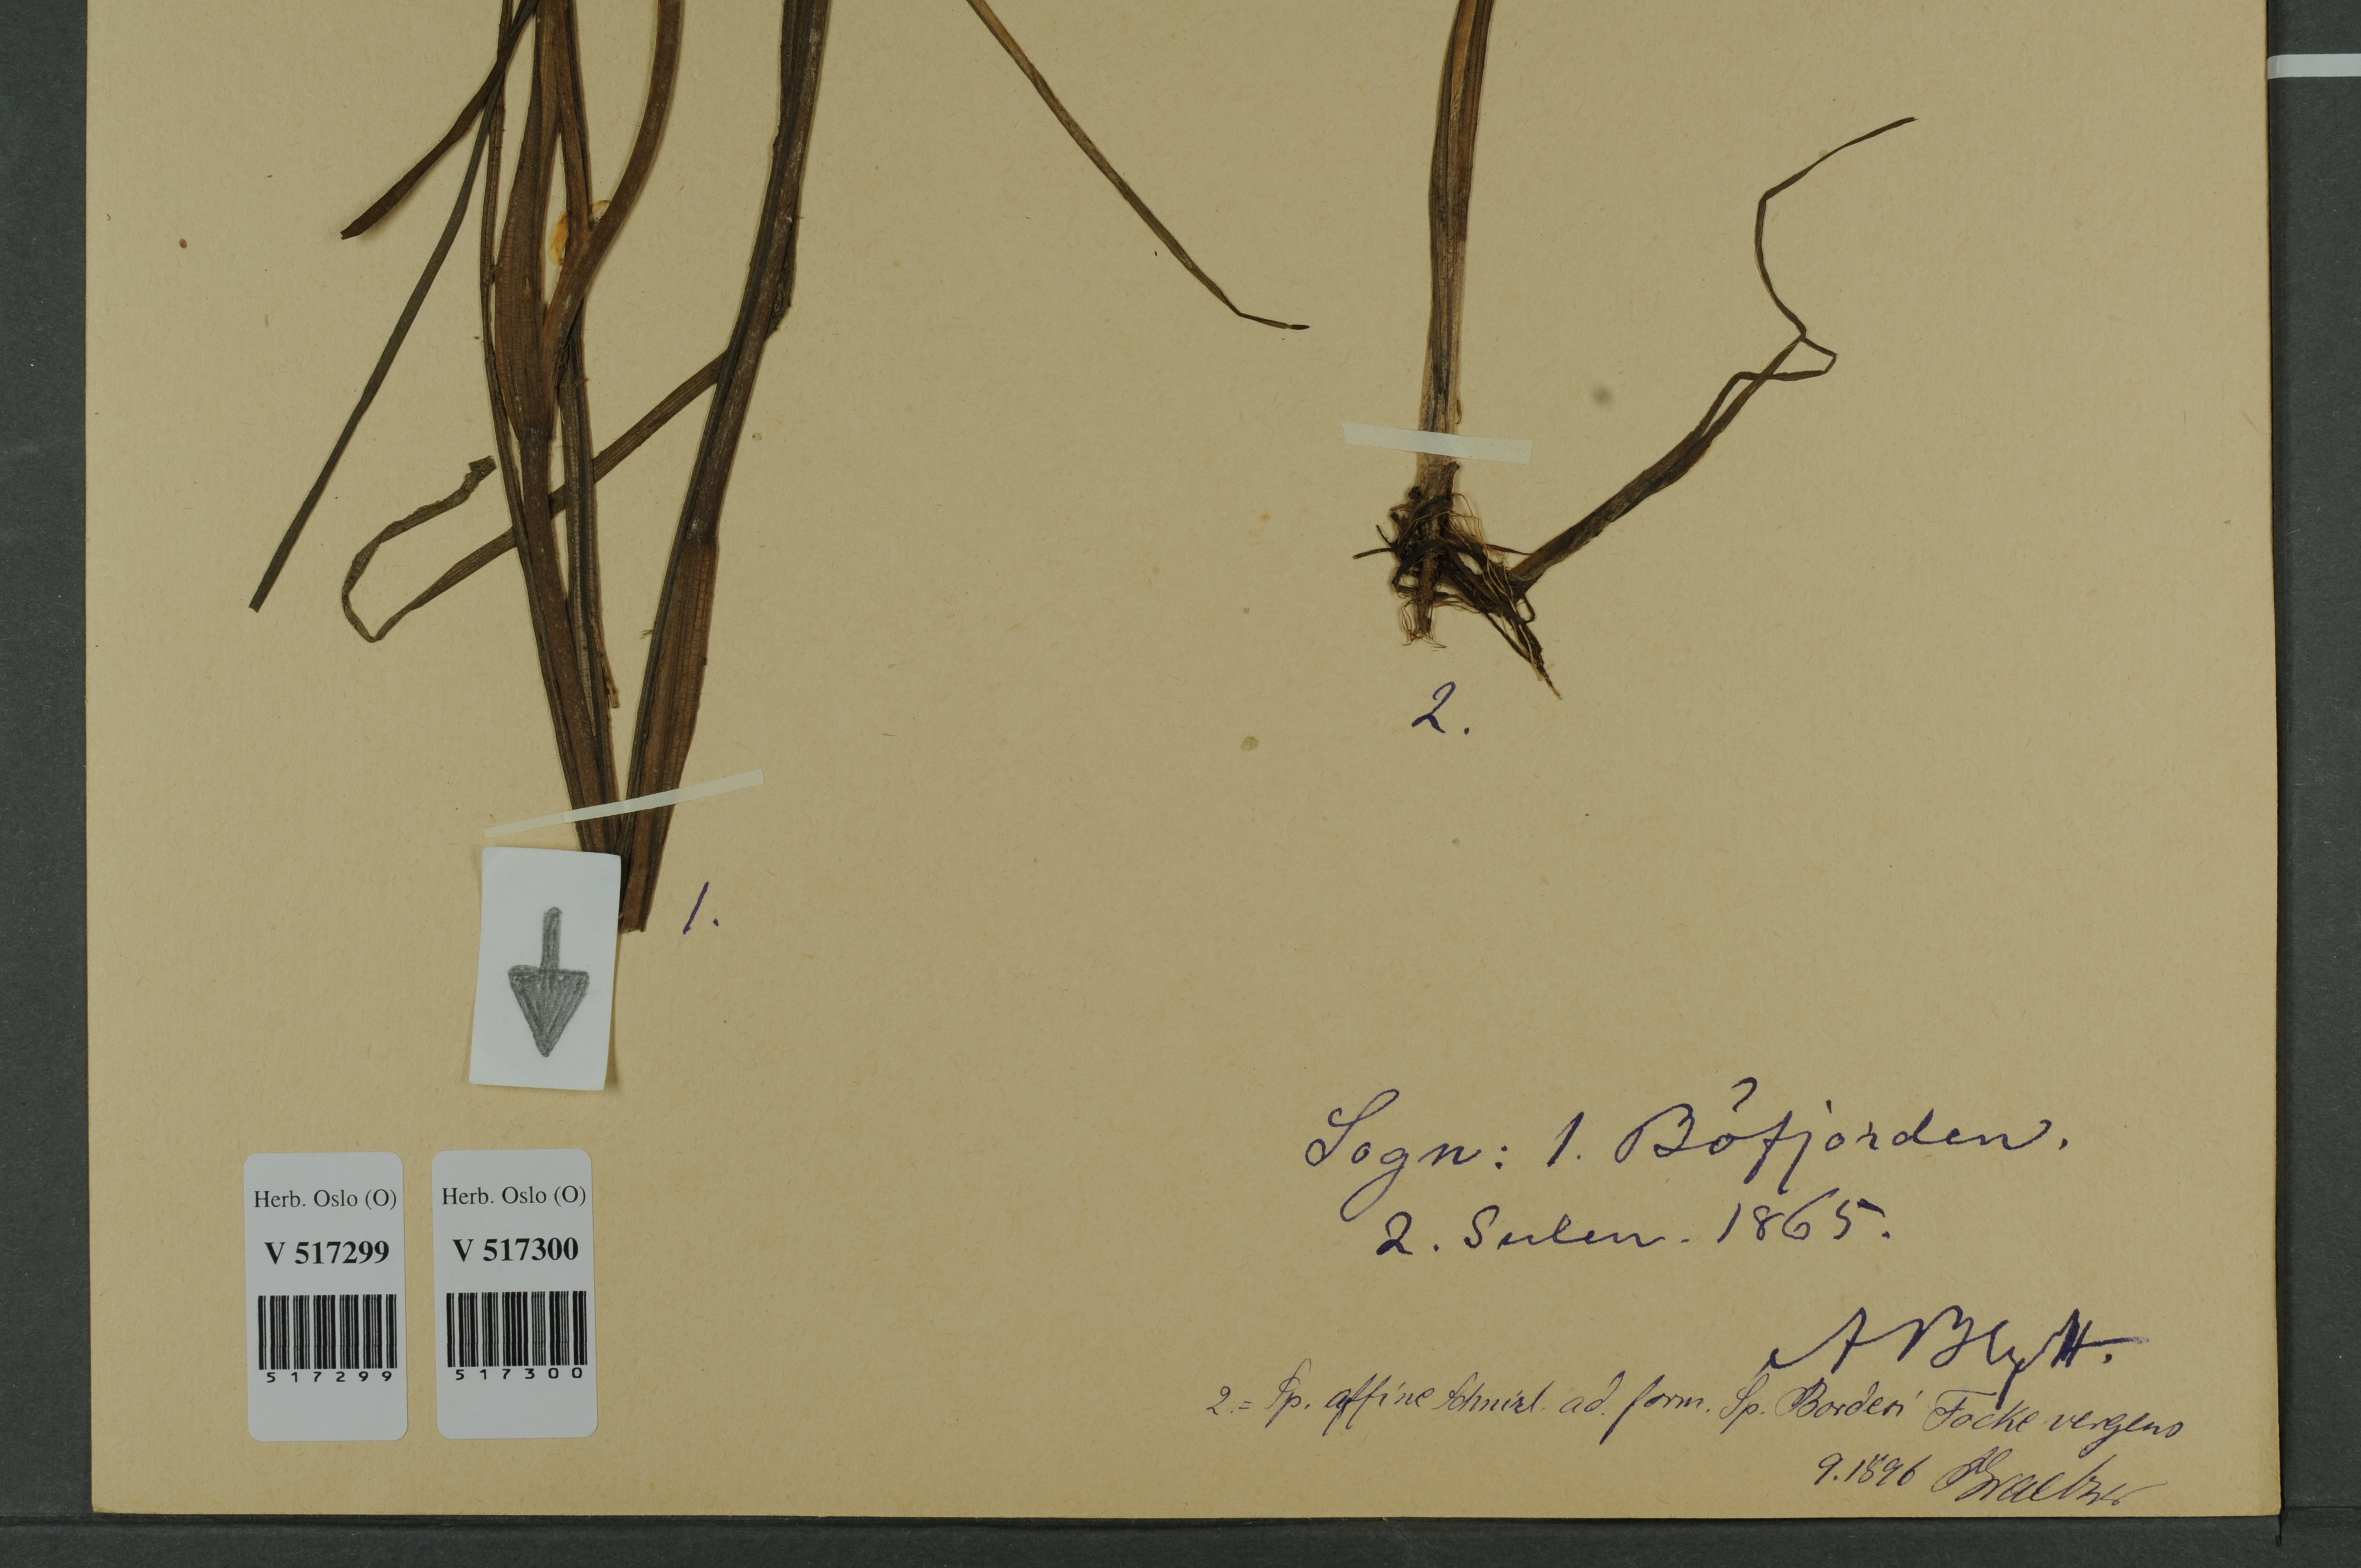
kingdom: Plantae
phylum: Tracheophyta
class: Liliopsida
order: Poales
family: Typhaceae
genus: Sparganium
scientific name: Sparganium angustifolium
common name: Floating bur-reed
